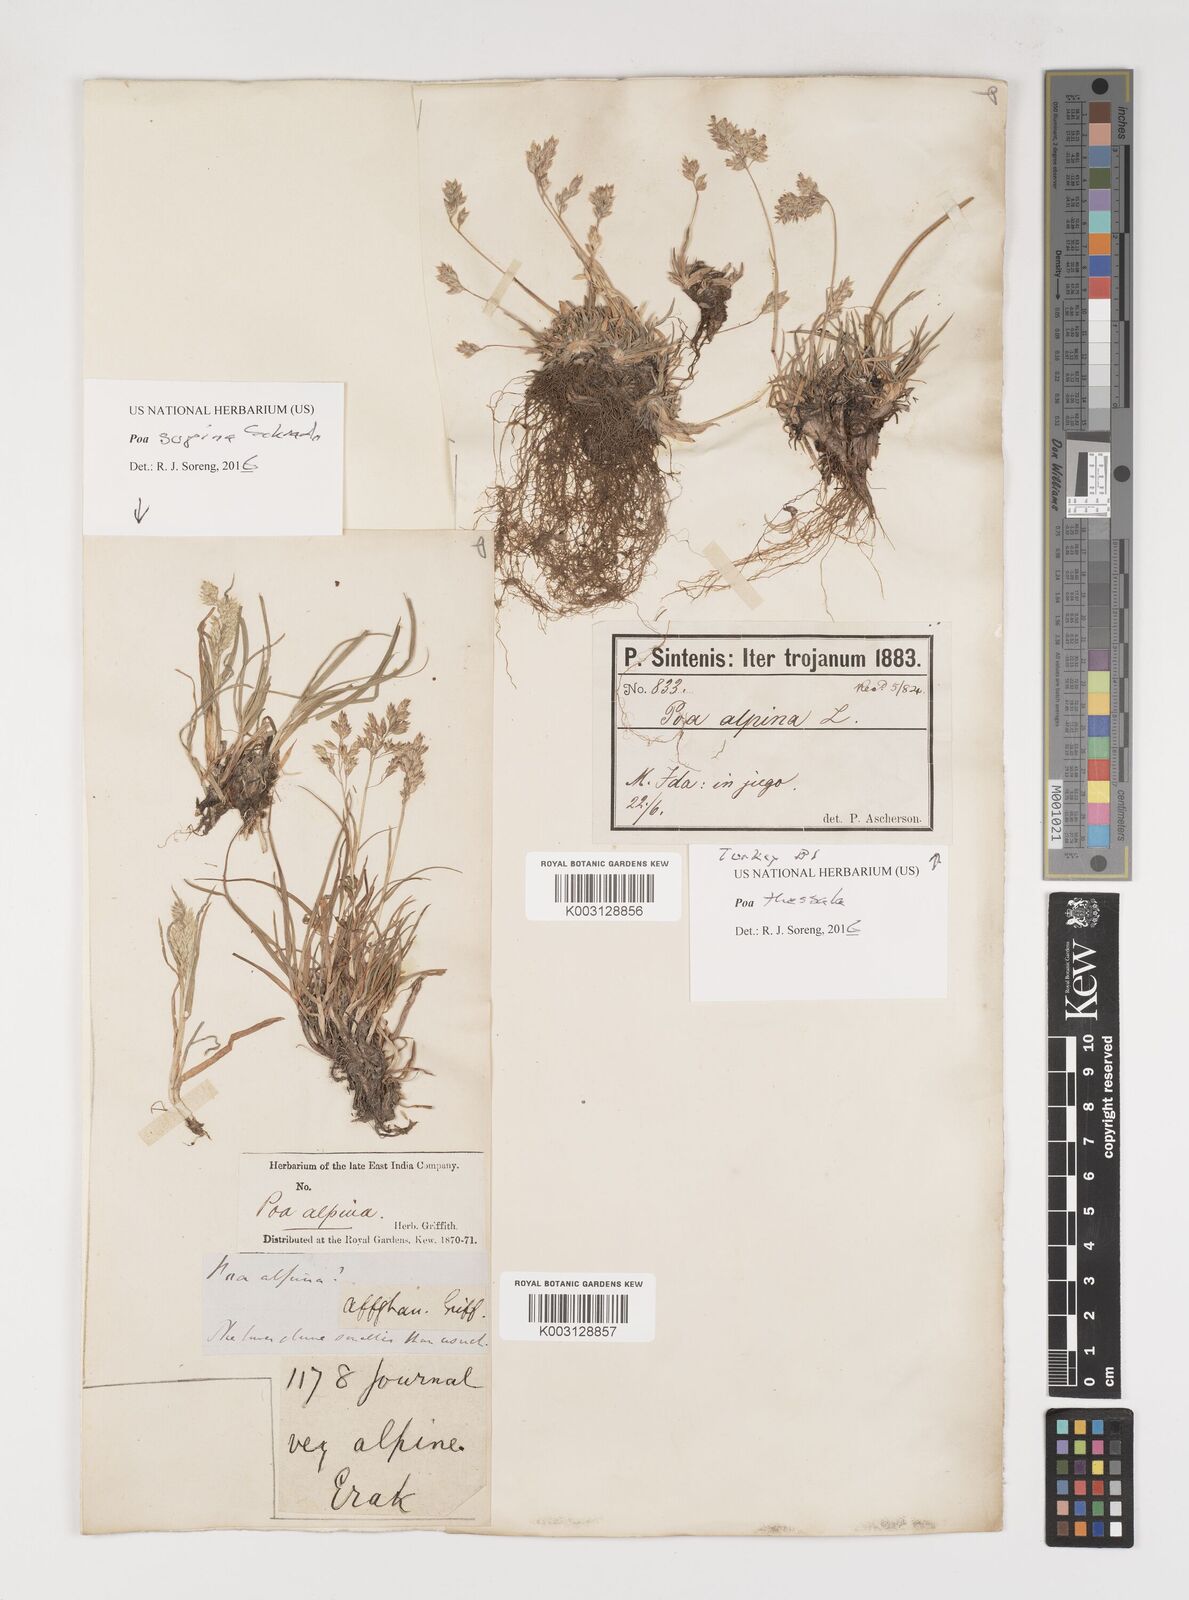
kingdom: Plantae
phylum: Tracheophyta
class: Liliopsida
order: Poales
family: Poaceae
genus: Poa
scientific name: Poa thessala
